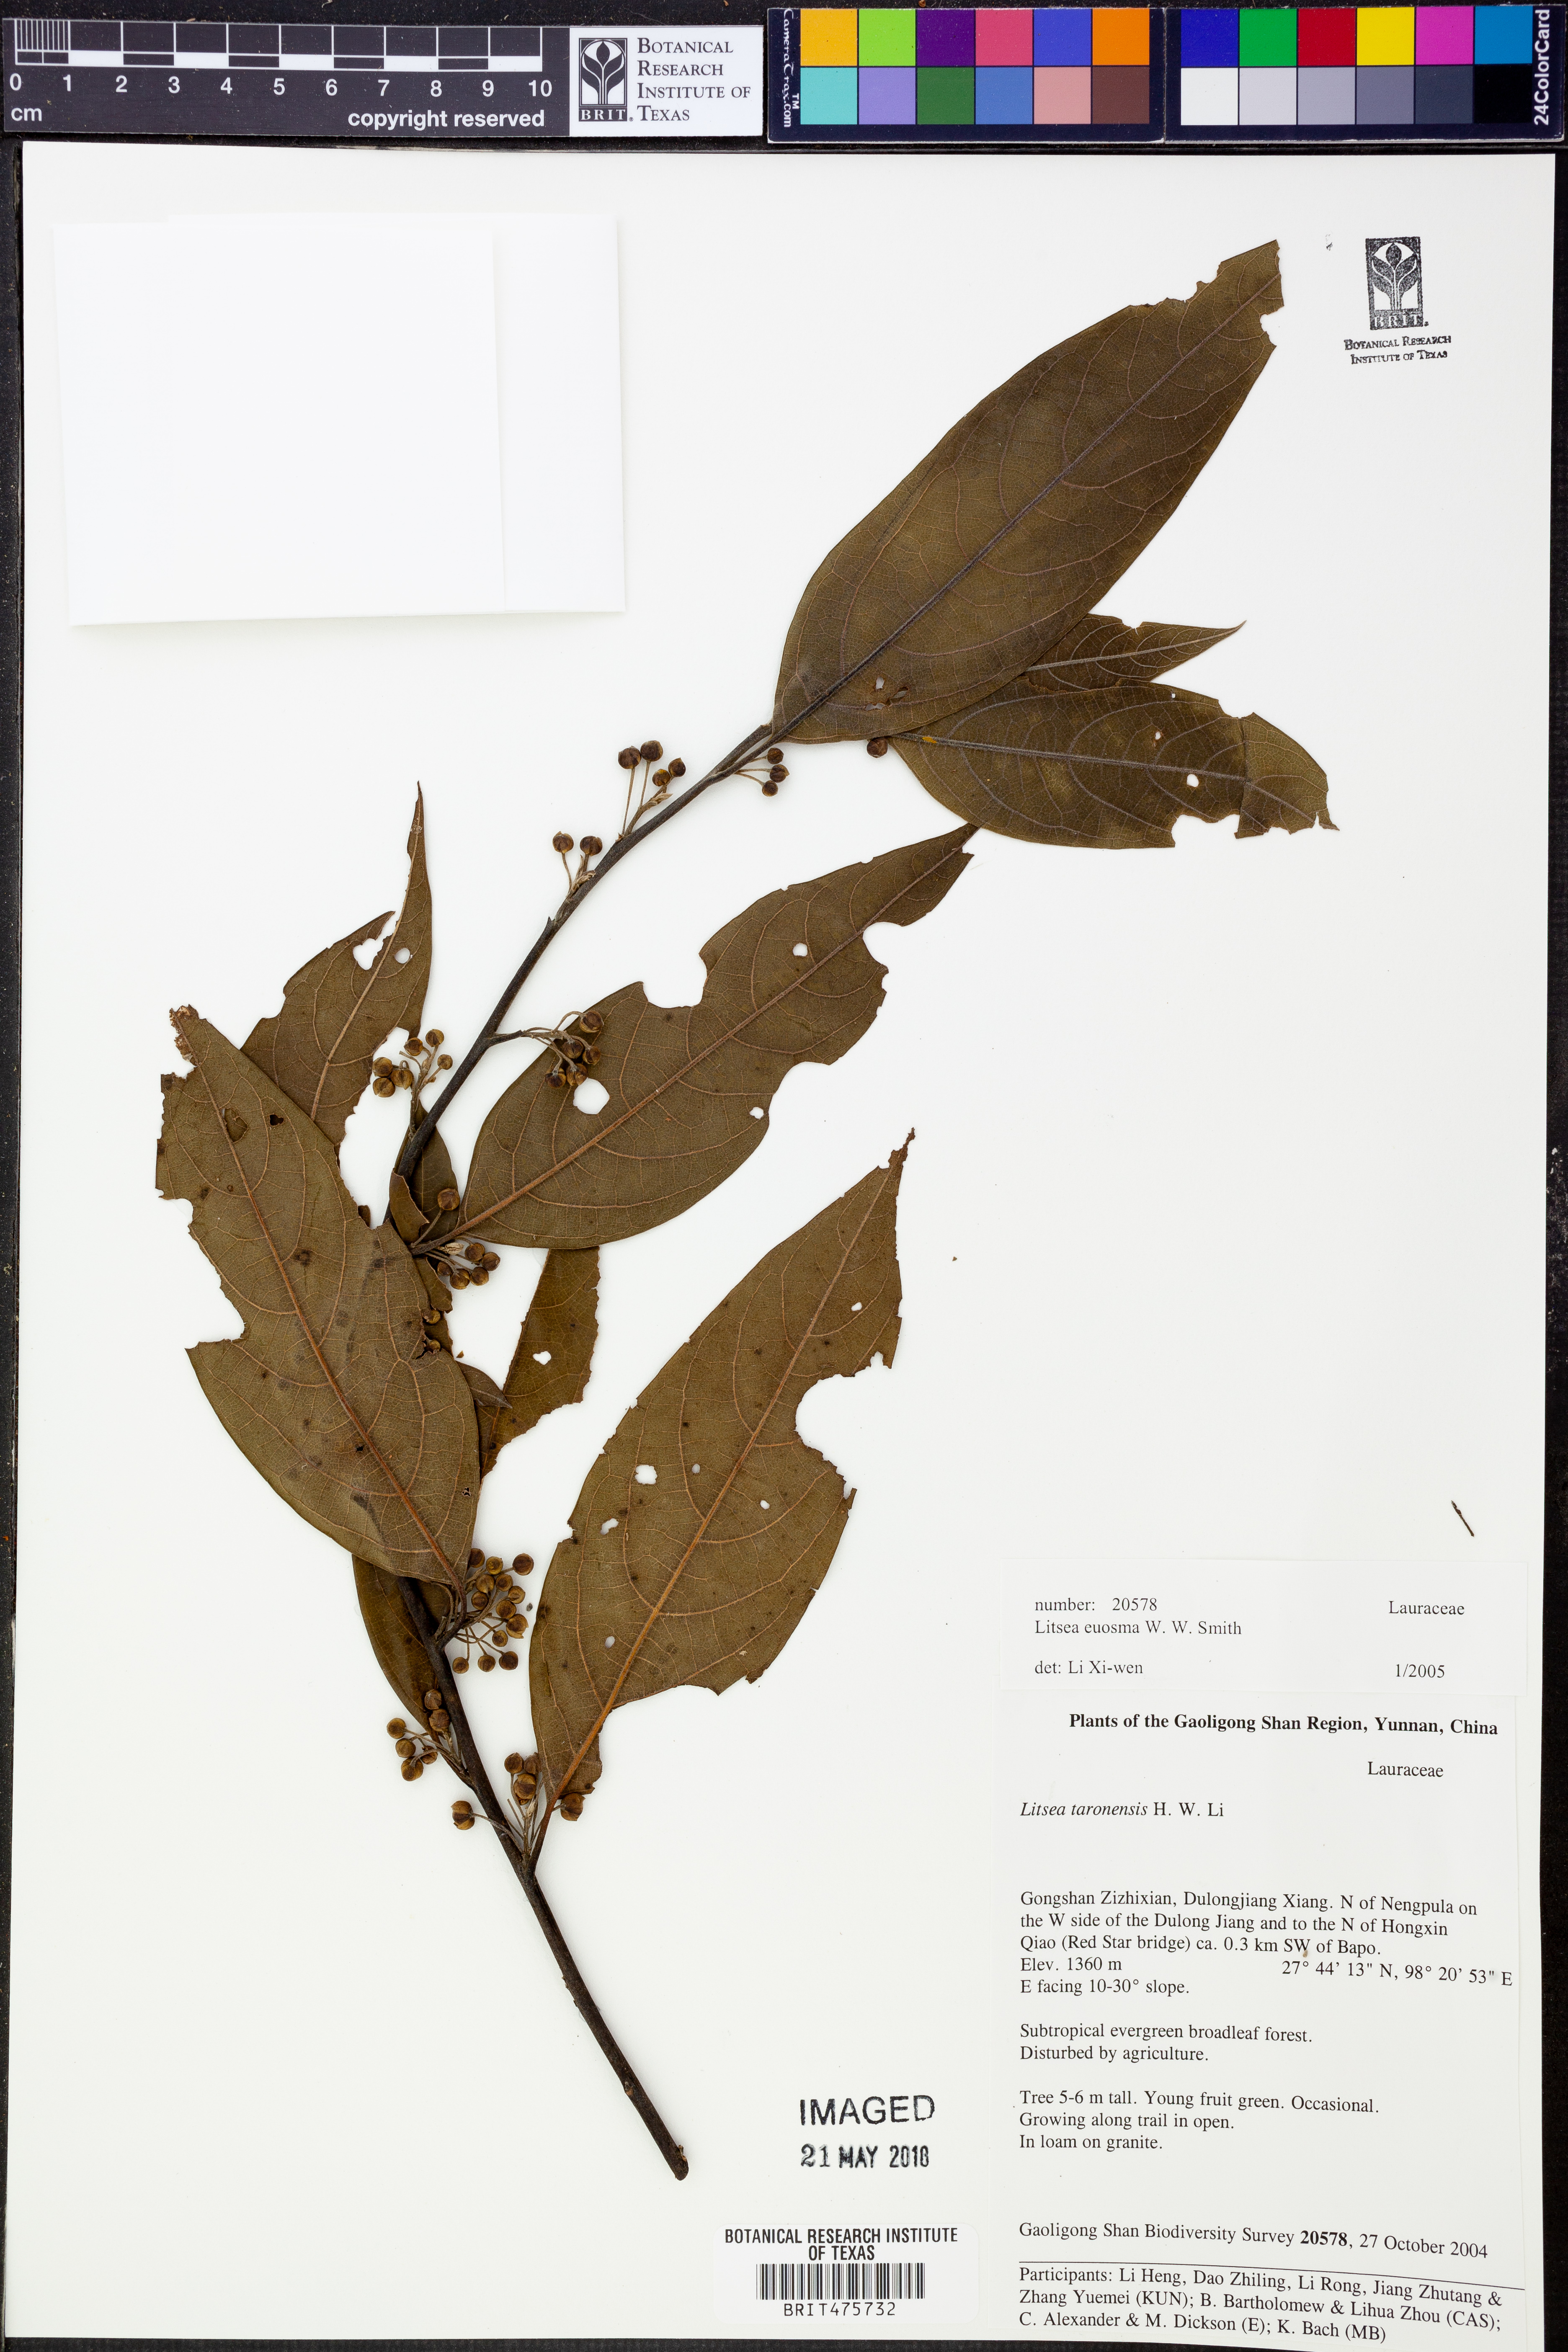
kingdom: Plantae
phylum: Tracheophyta
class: Magnoliopsida
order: Laurales
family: Lauraceae
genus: Litsea
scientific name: Litsea euosma
